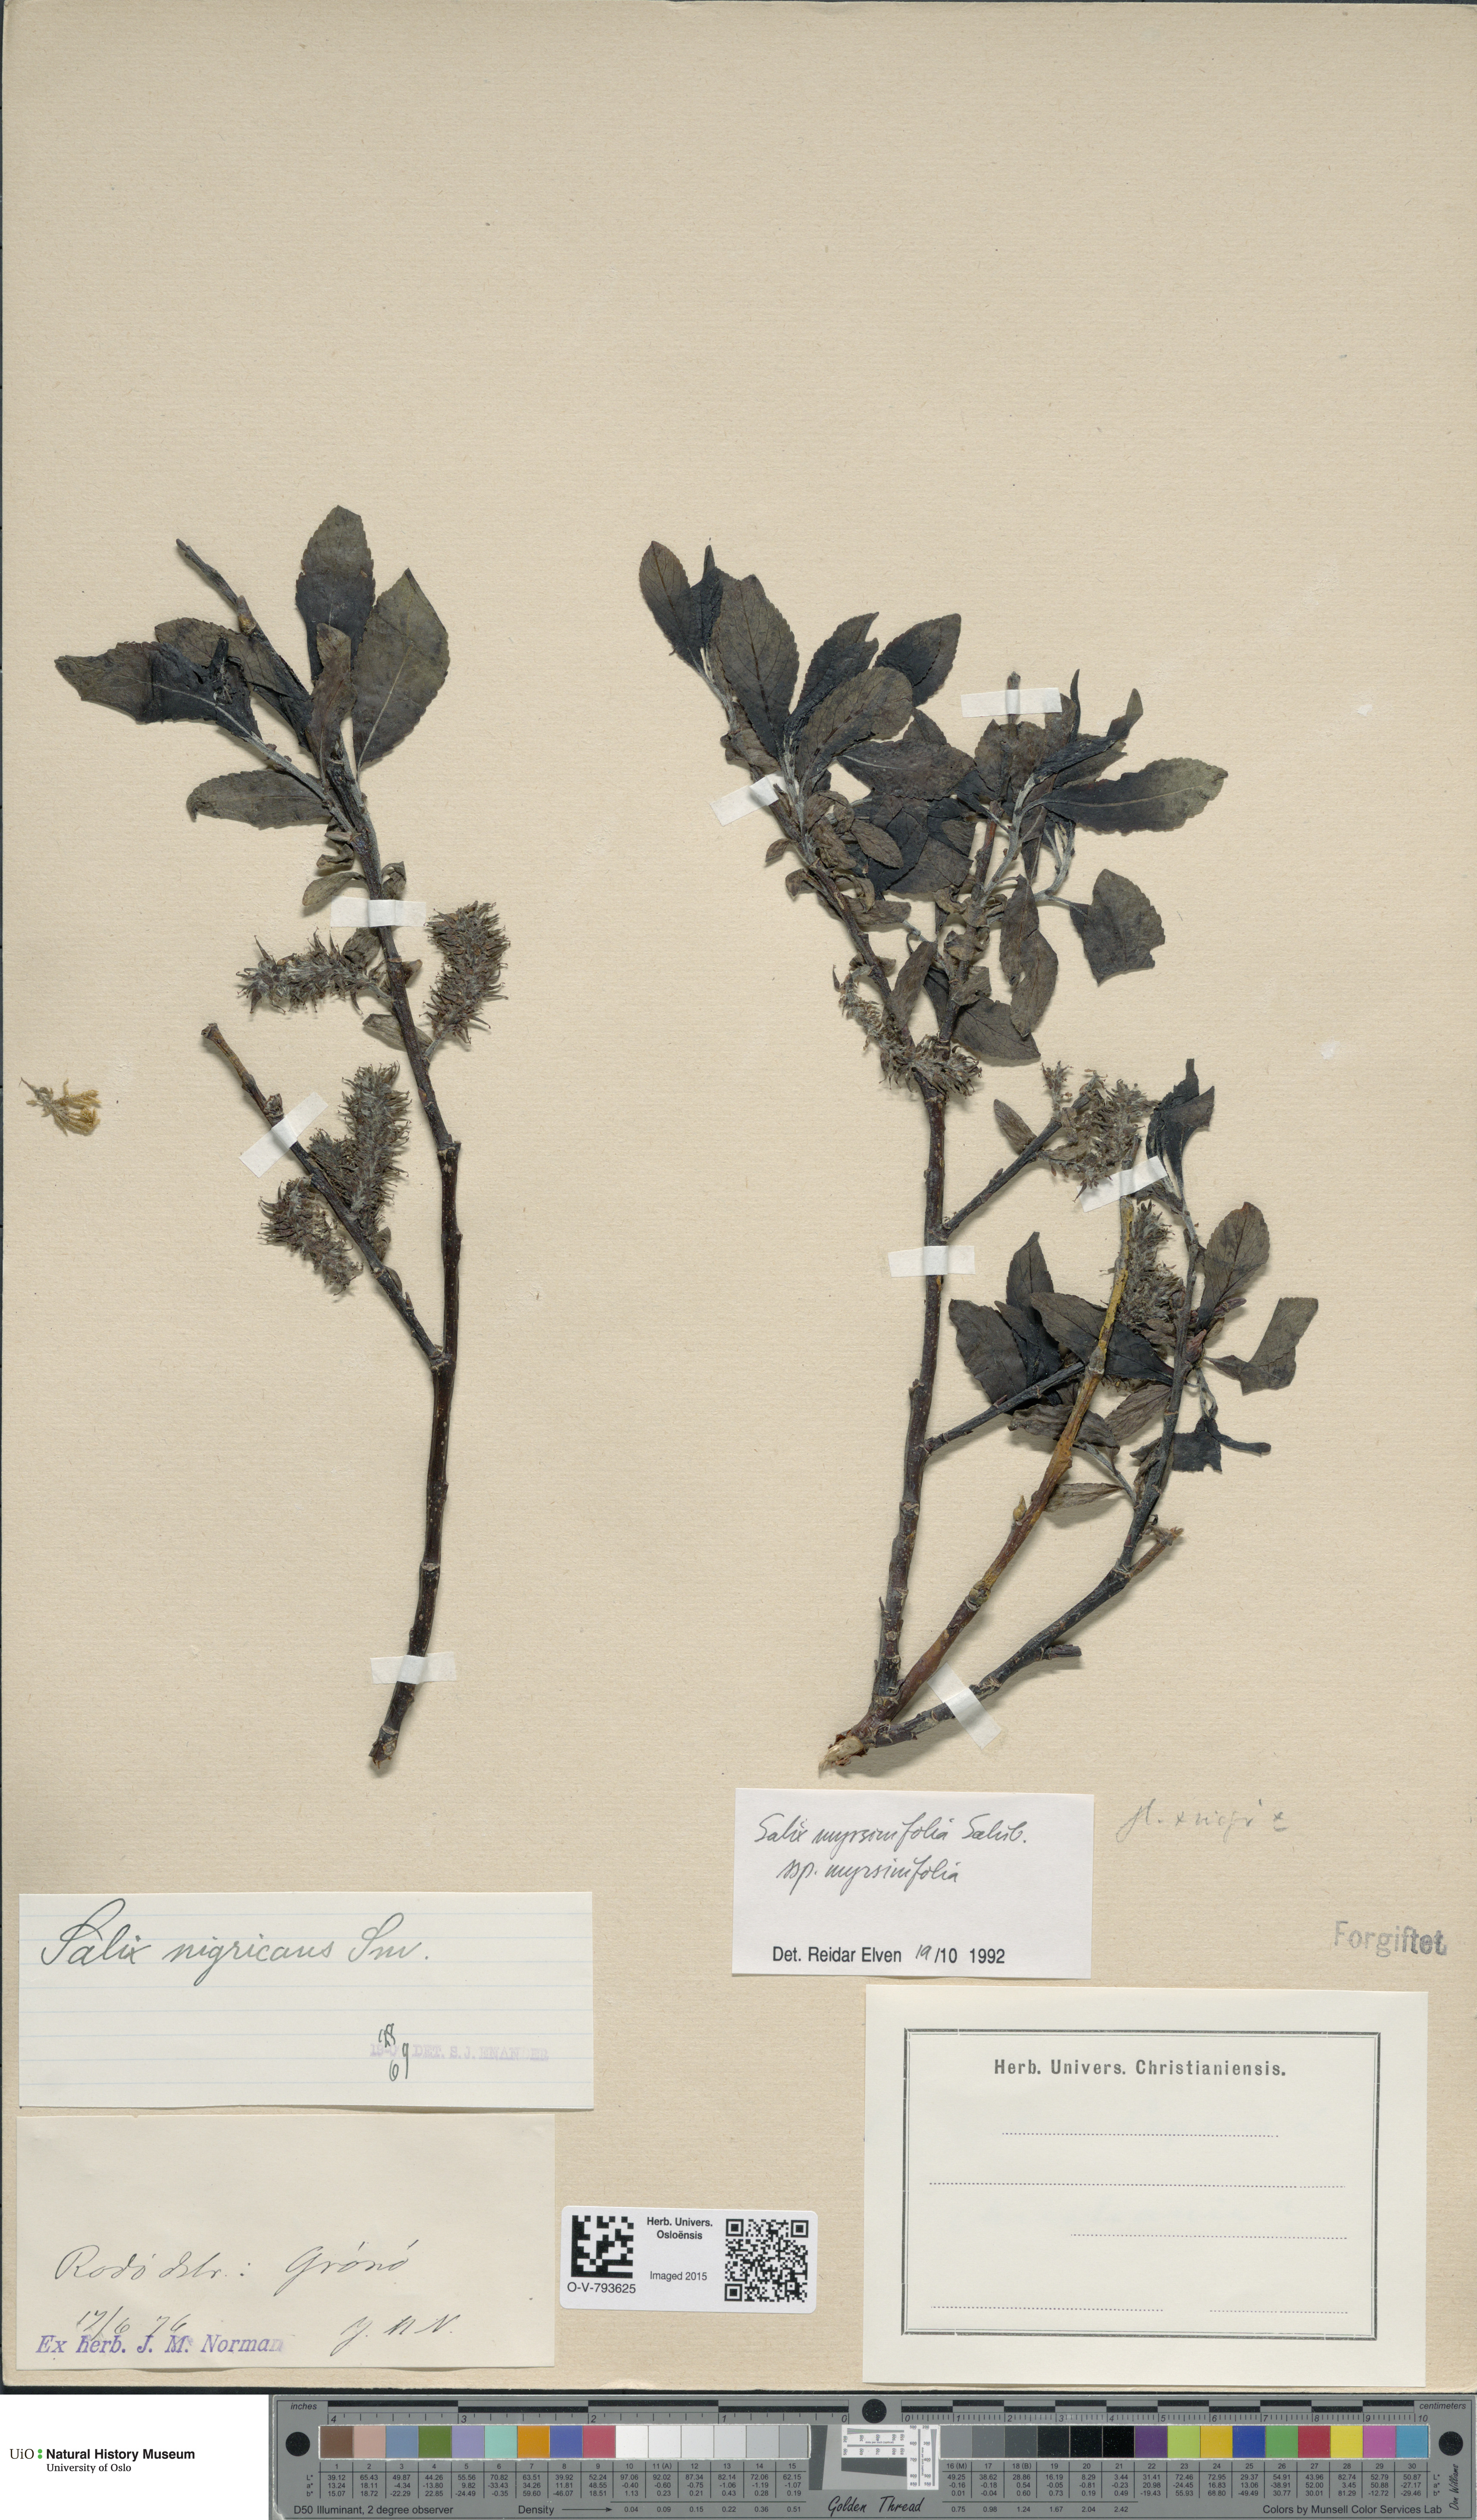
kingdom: Plantae
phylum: Tracheophyta
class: Magnoliopsida
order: Malpighiales
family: Salicaceae
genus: Salix
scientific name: Salix myrsinifolia
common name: Dark-leaved willow
